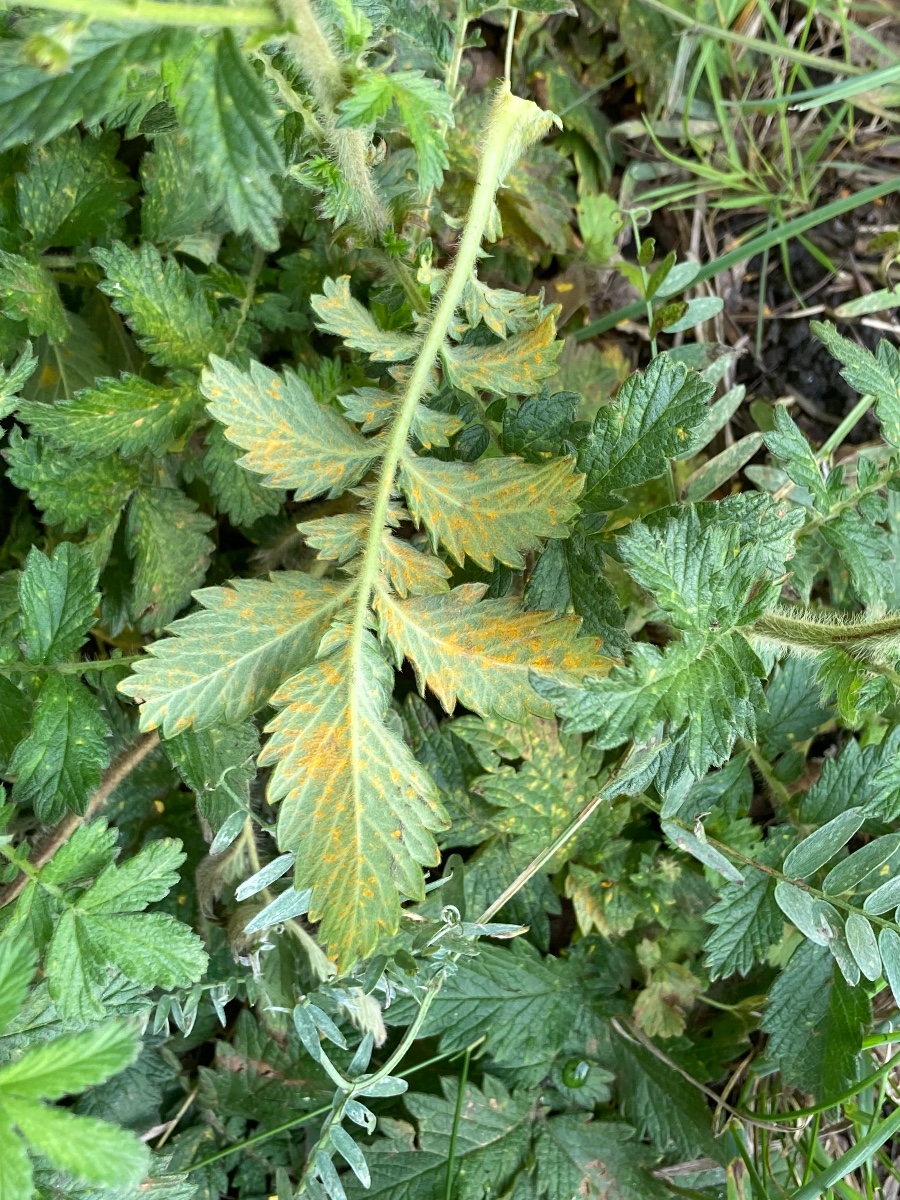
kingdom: Fungi
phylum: Basidiomycota
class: Pucciniomycetes
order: Pucciniales
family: Cronartiaceae
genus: Quasipucciniastrum
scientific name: Quasipucciniastrum ochraceum
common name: agermåne-nålerust
